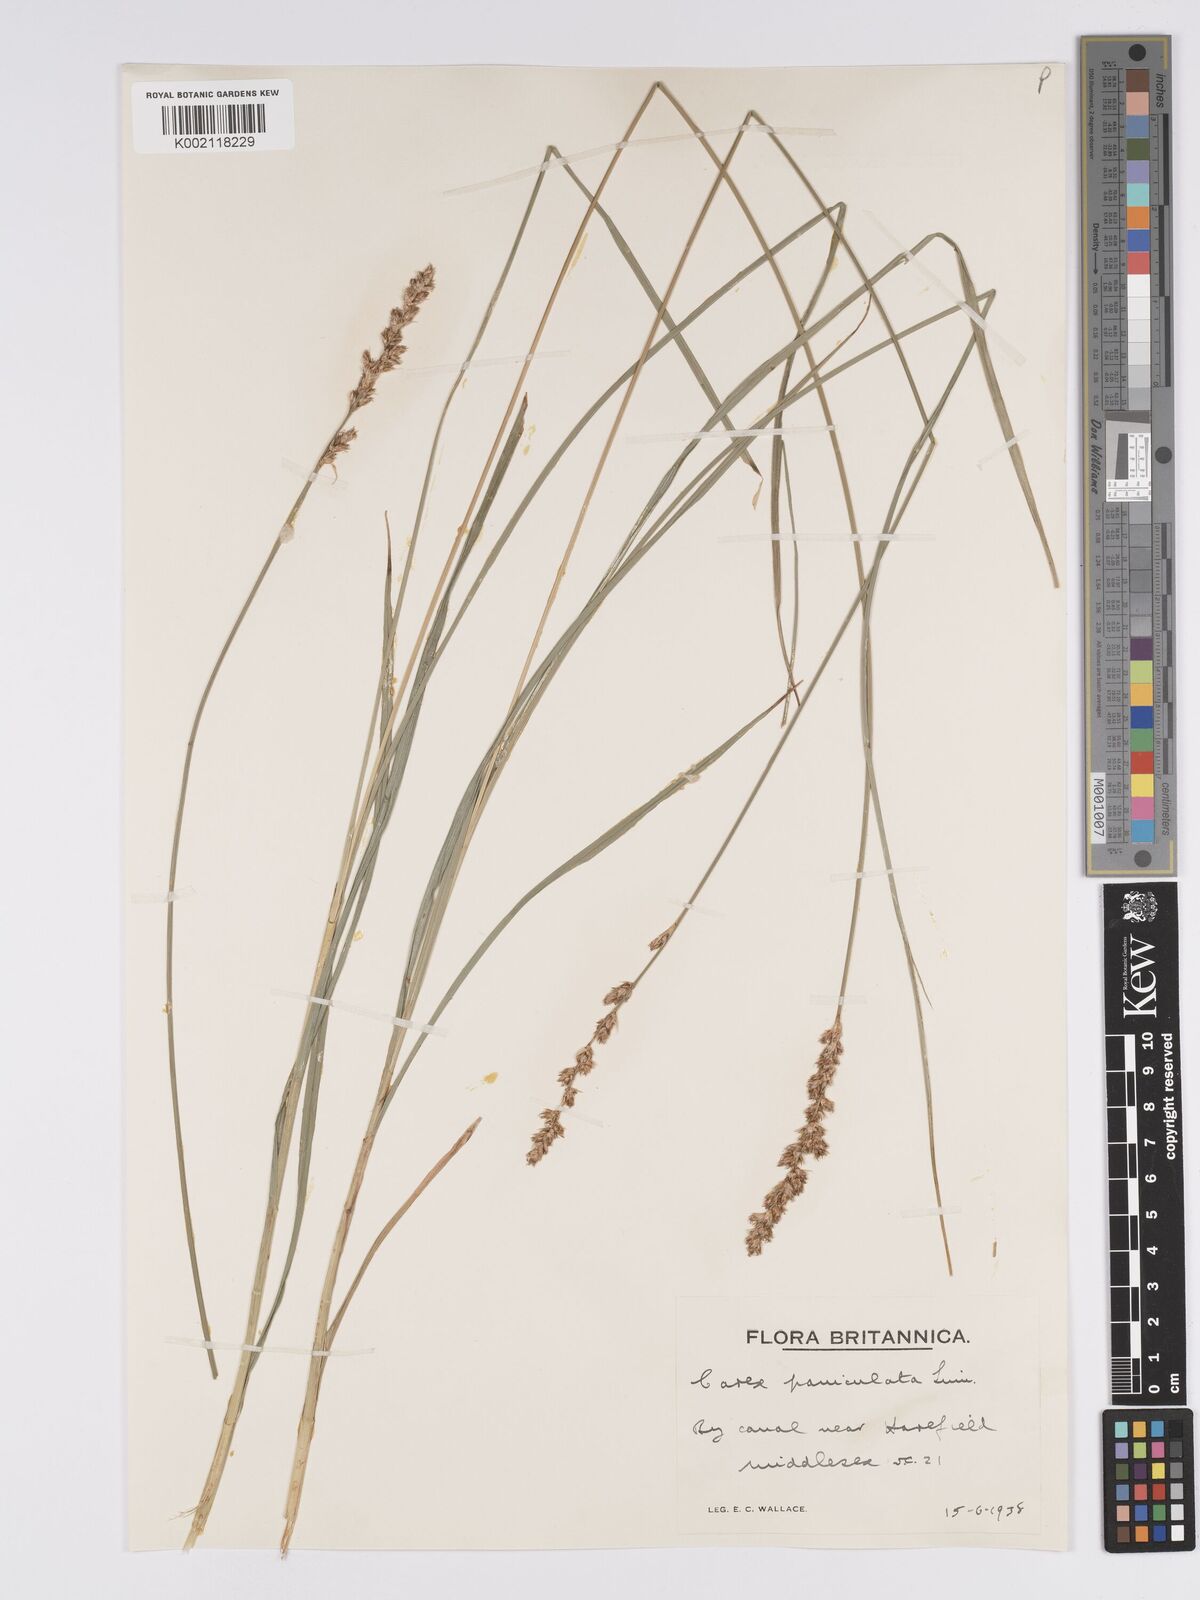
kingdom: Plantae
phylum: Tracheophyta
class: Liliopsida
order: Poales
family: Cyperaceae
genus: Carex
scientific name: Carex paniculata
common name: Greater tussock-sedge
